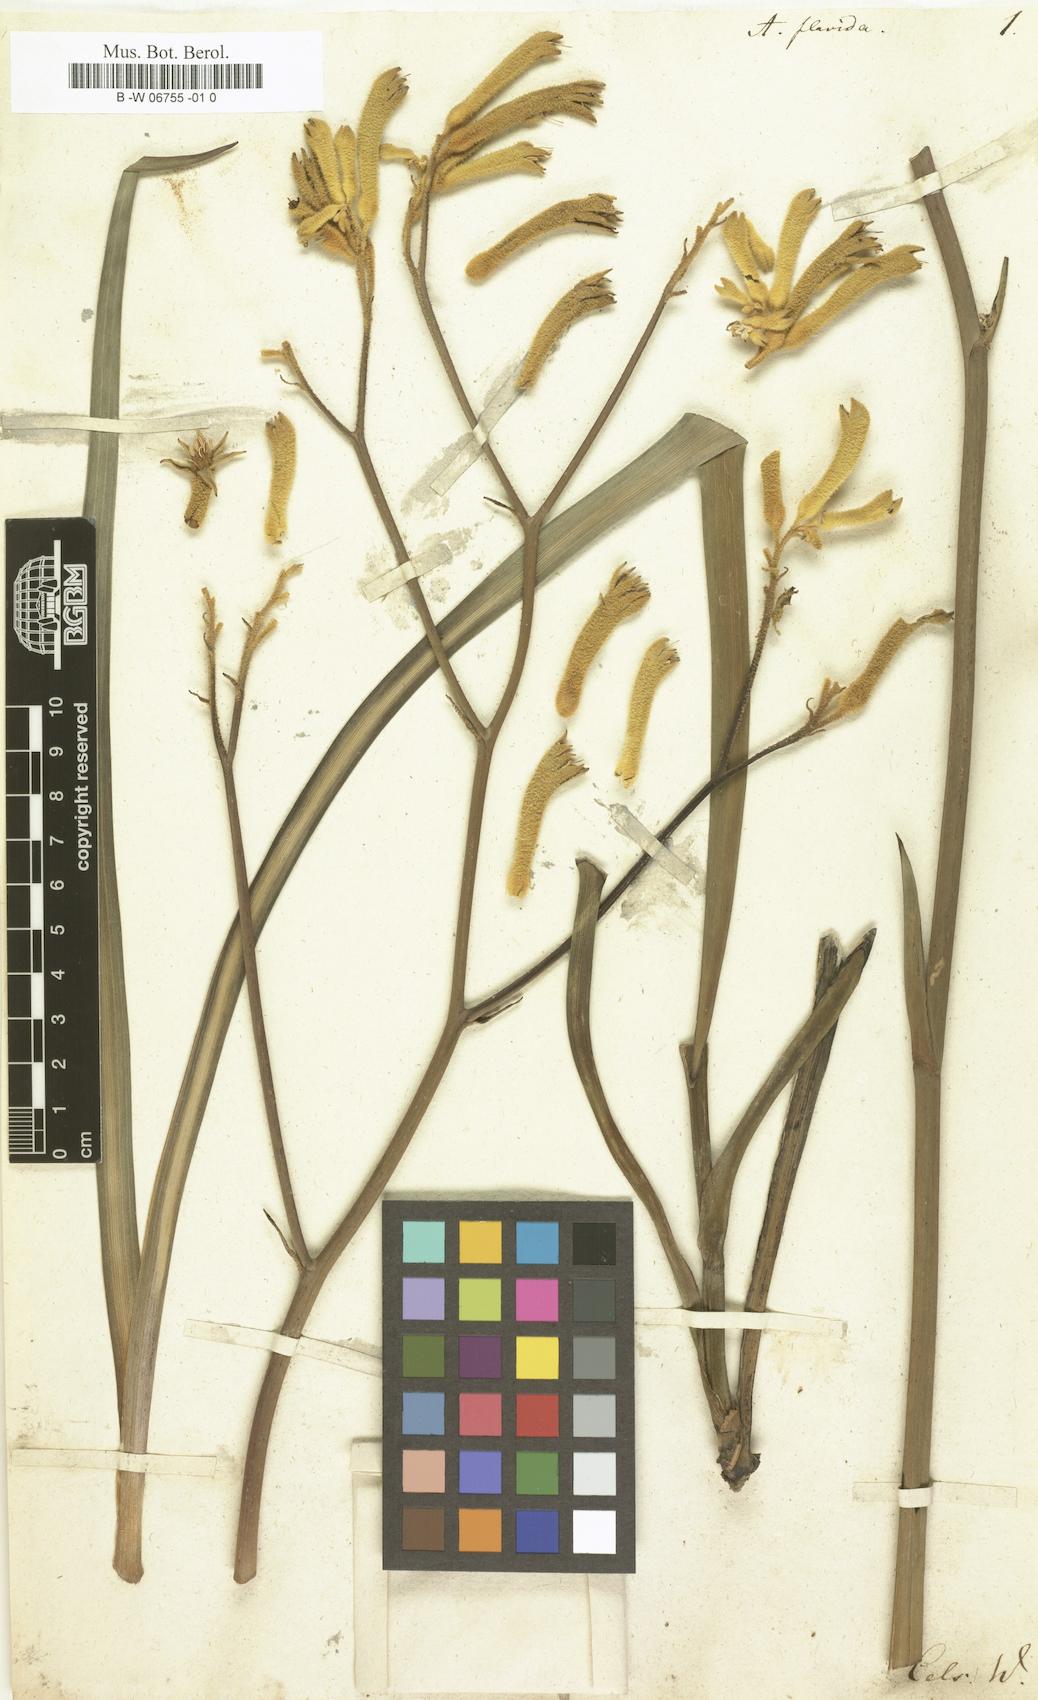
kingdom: Plantae
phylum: Tracheophyta
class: Liliopsida
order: Commelinales
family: Haemodoraceae
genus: Anigozanthos
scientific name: Anigozanthos flavidus
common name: Evergreen kangaroo-paw
